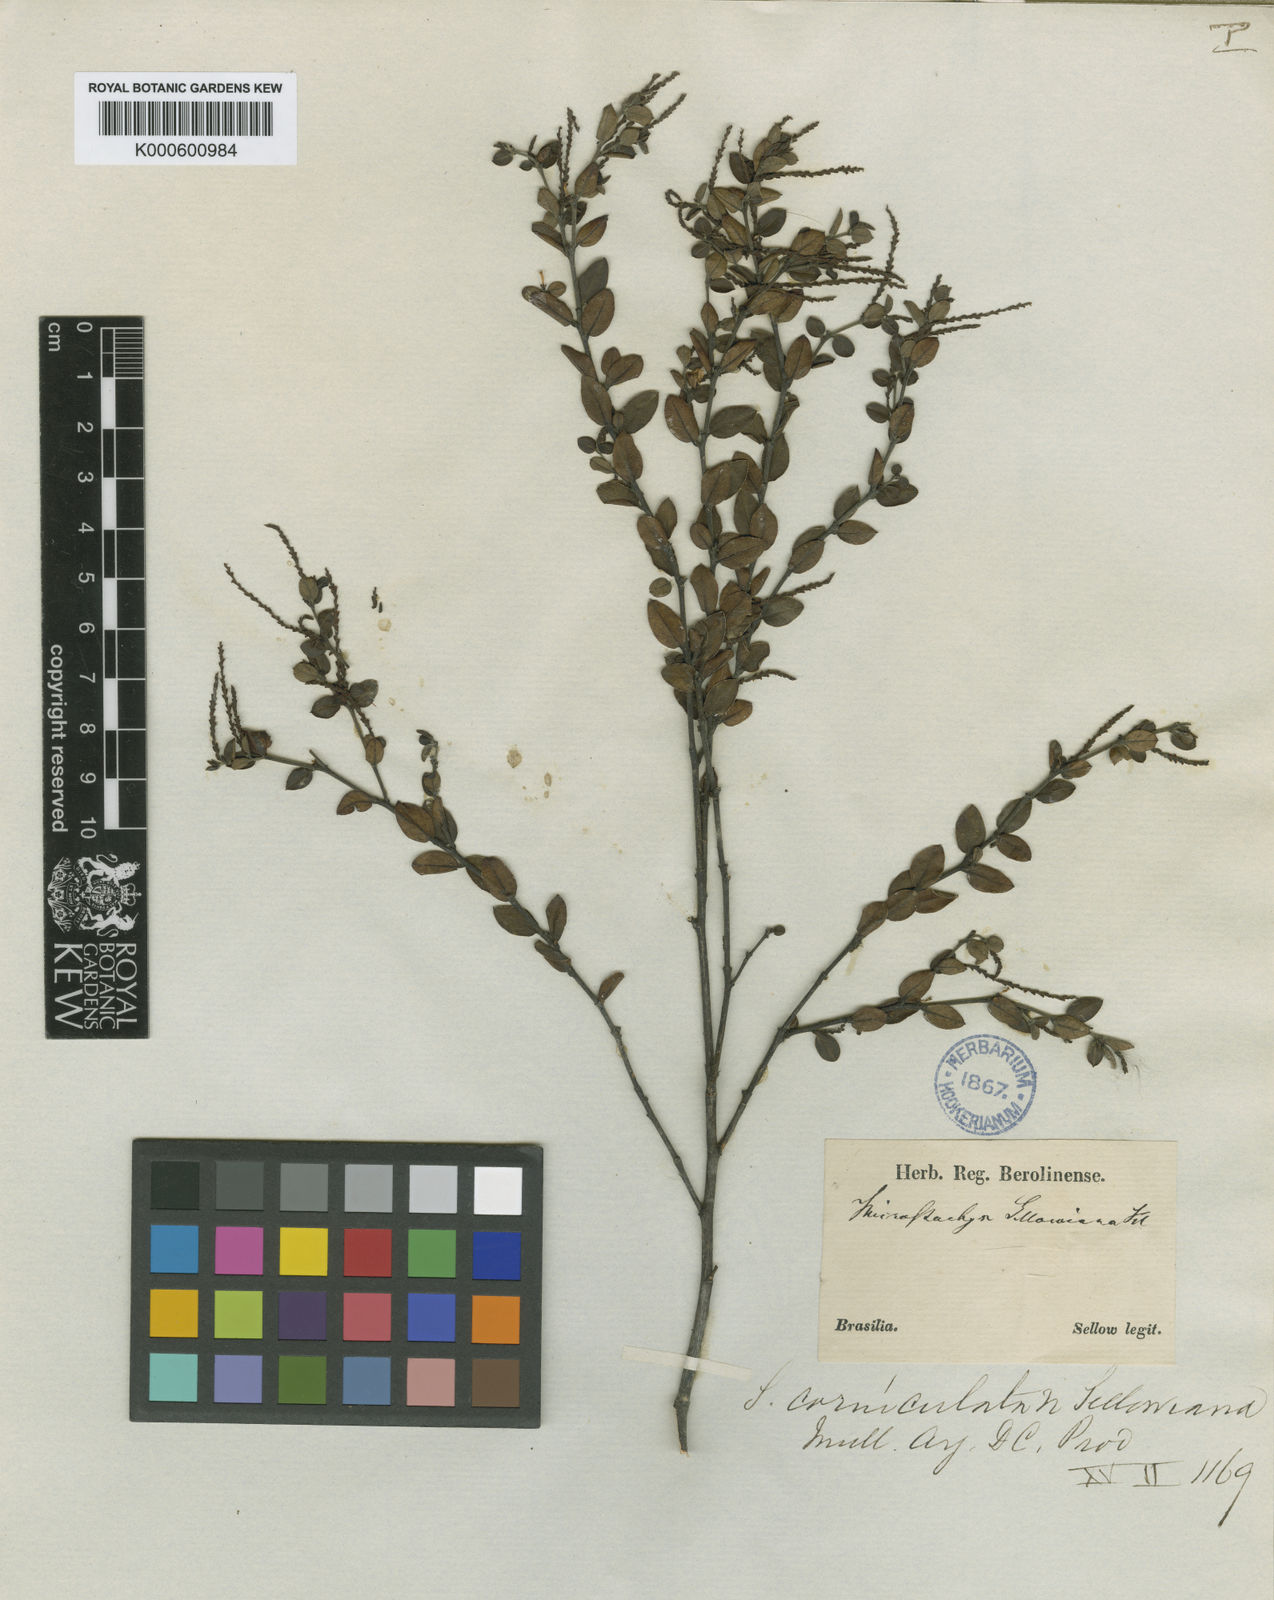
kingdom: Plantae
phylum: Tracheophyta
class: Magnoliopsida
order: Malpighiales
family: Euphorbiaceae
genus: Sebastiania
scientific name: Sebastiania
